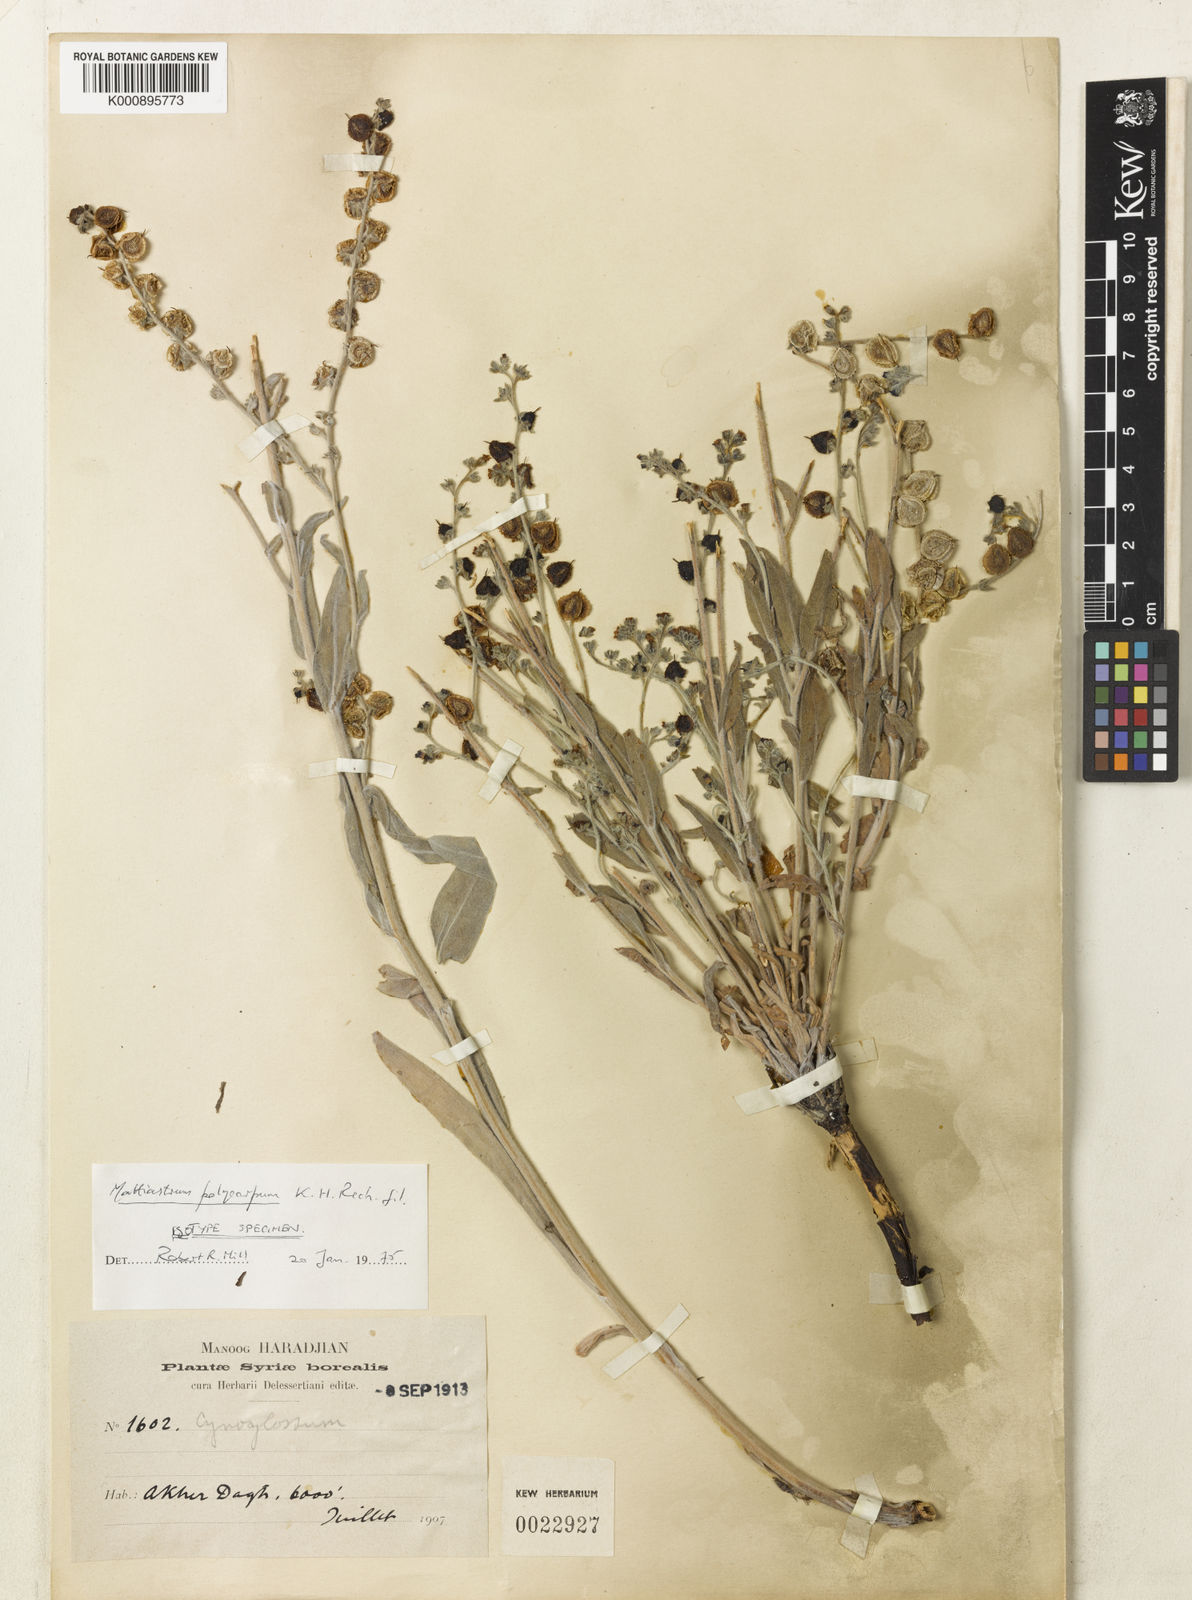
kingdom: Plantae
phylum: Tracheophyta
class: Magnoliopsida
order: Boraginales
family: Boraginaceae
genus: Paracaryum
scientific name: Paracaryum polycarpum
